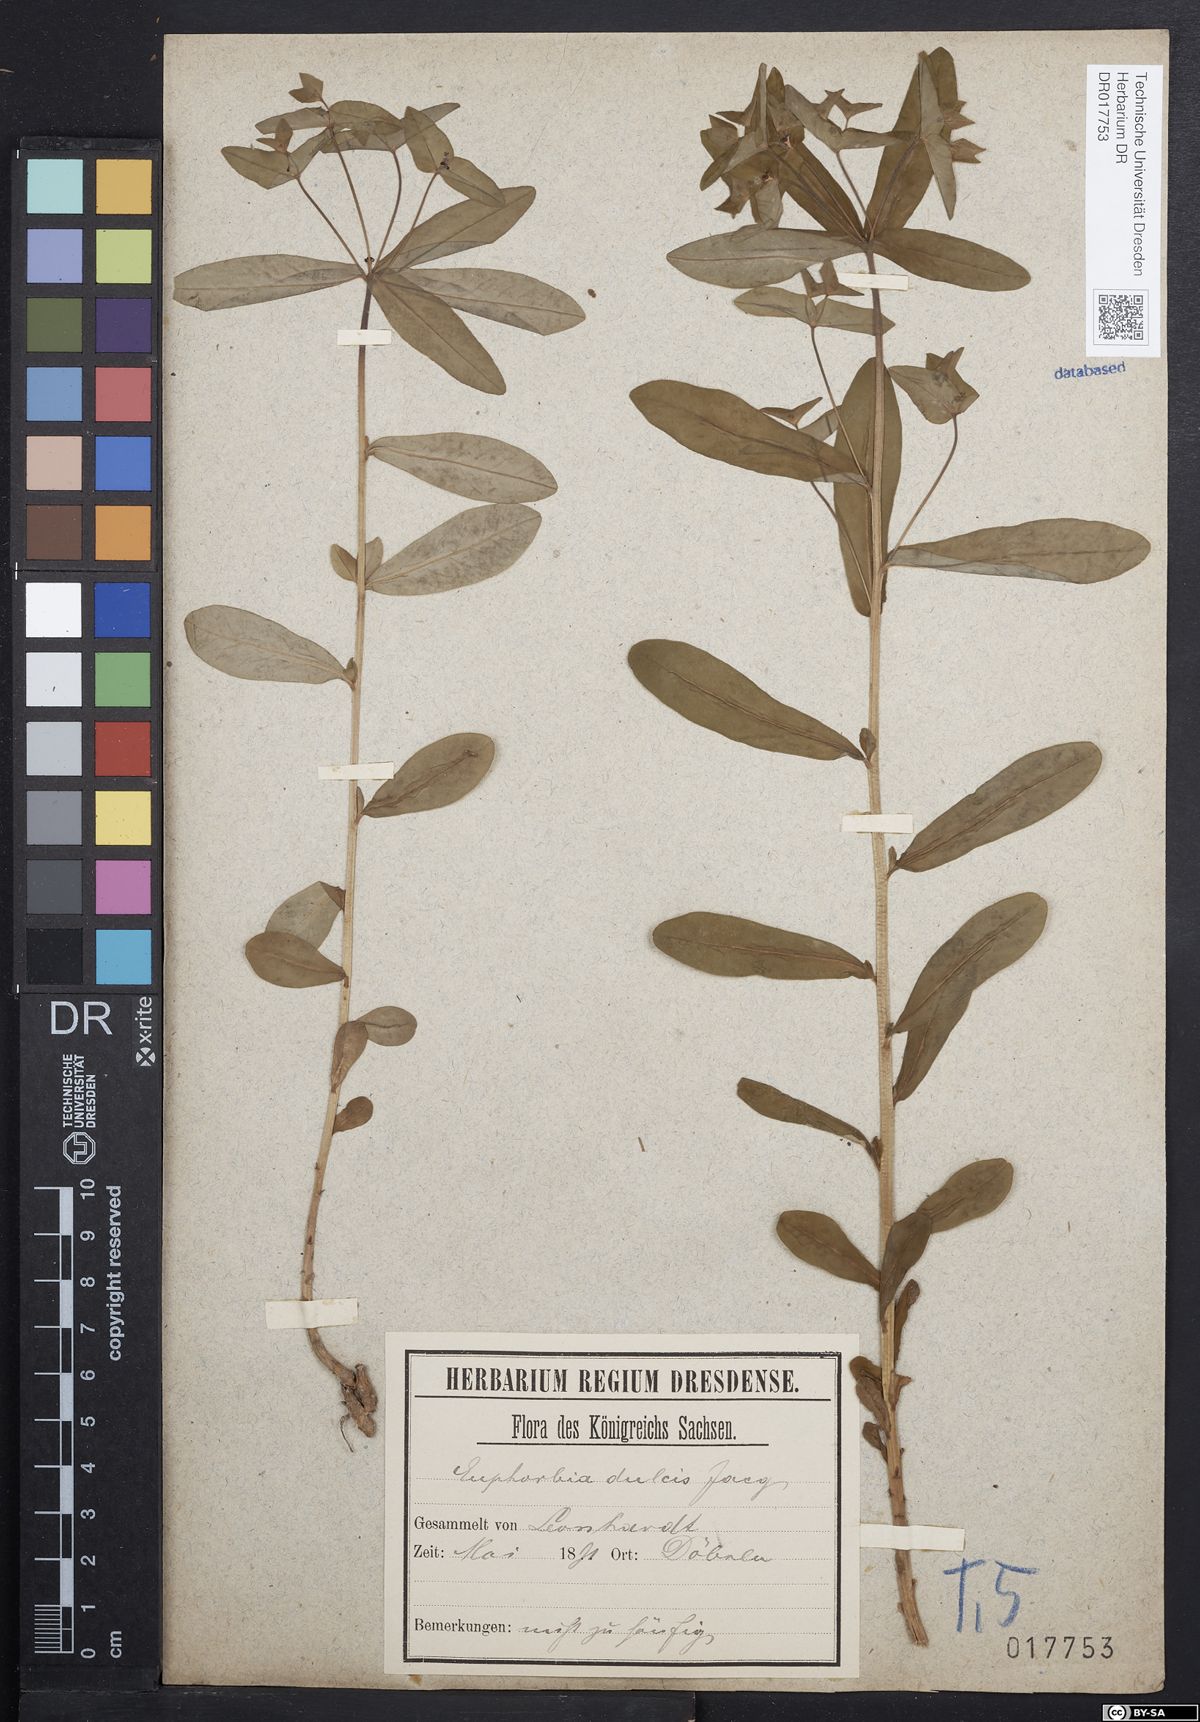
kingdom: Plantae
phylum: Tracheophyta
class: Magnoliopsida
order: Malpighiales
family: Euphorbiaceae
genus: Euphorbia
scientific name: Euphorbia dulcis
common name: Sweet spurge
